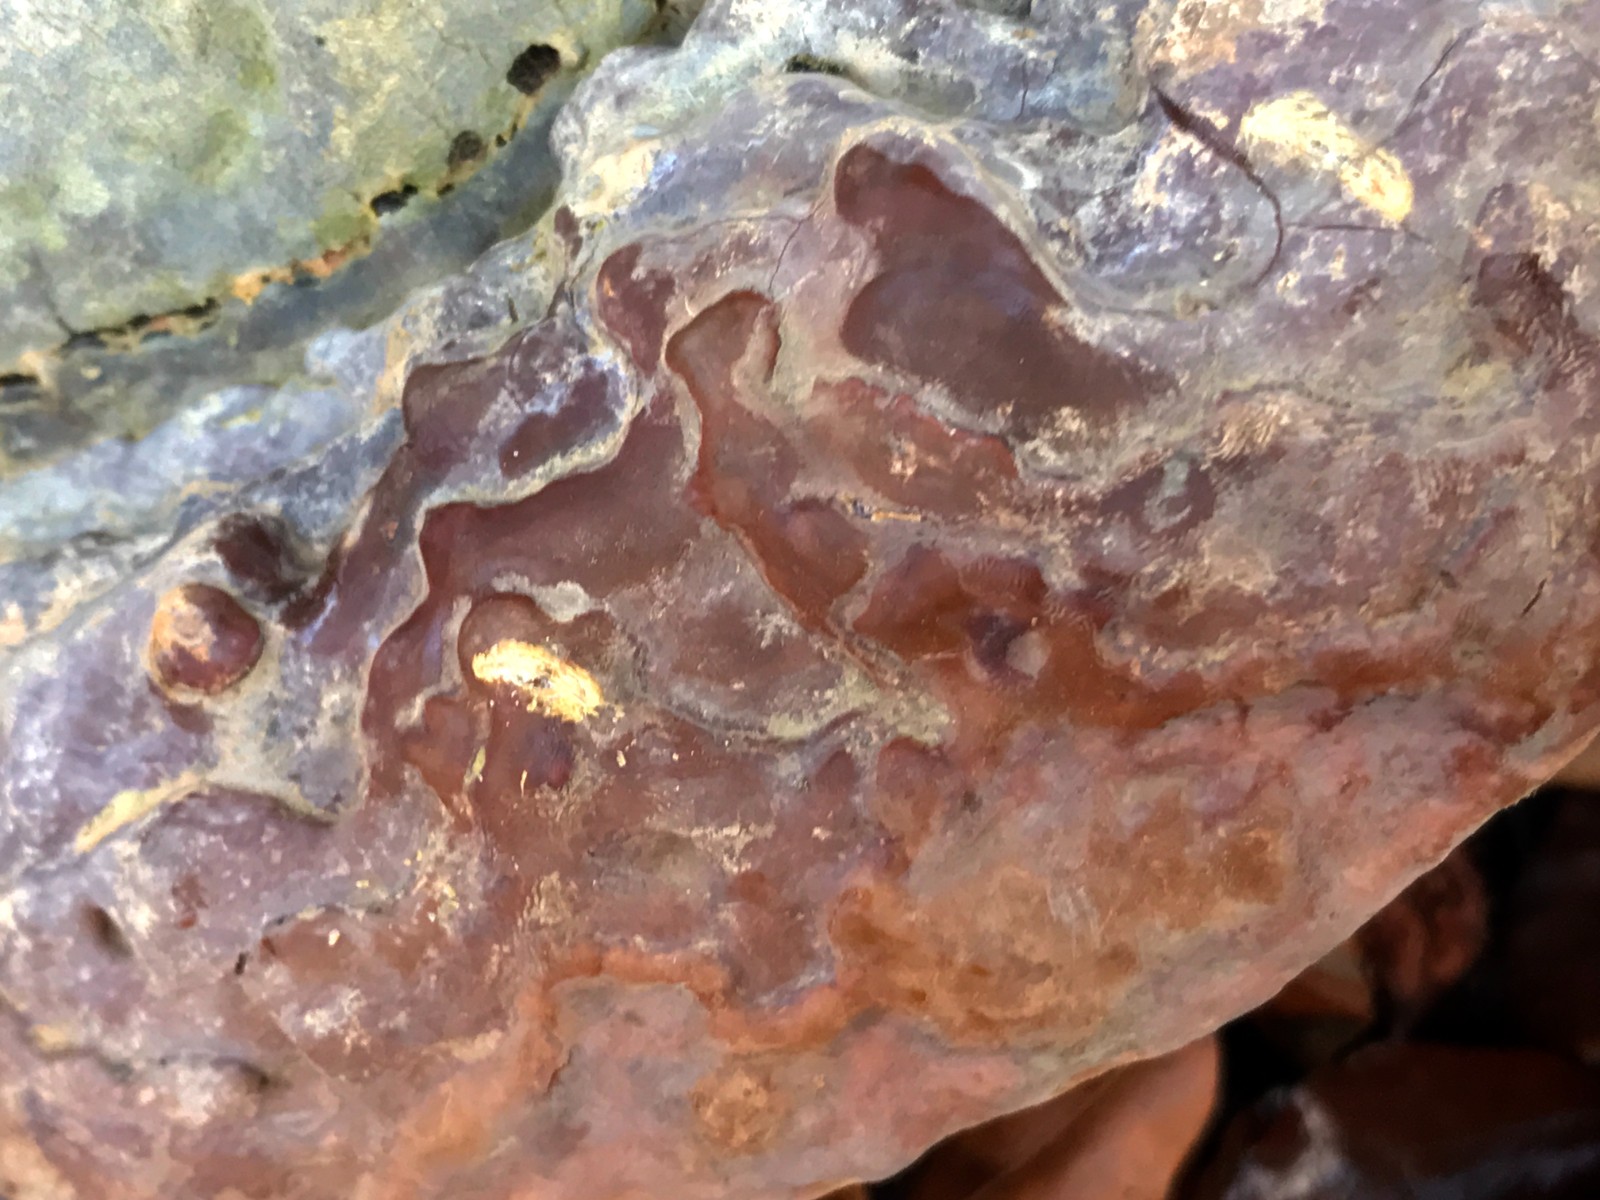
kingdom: Fungi
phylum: Basidiomycota
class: Agaricomycetes
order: Polyporales
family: Polyporaceae
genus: Ganoderma
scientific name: Ganoderma pfeifferi
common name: kobberrød lakporesvamp
